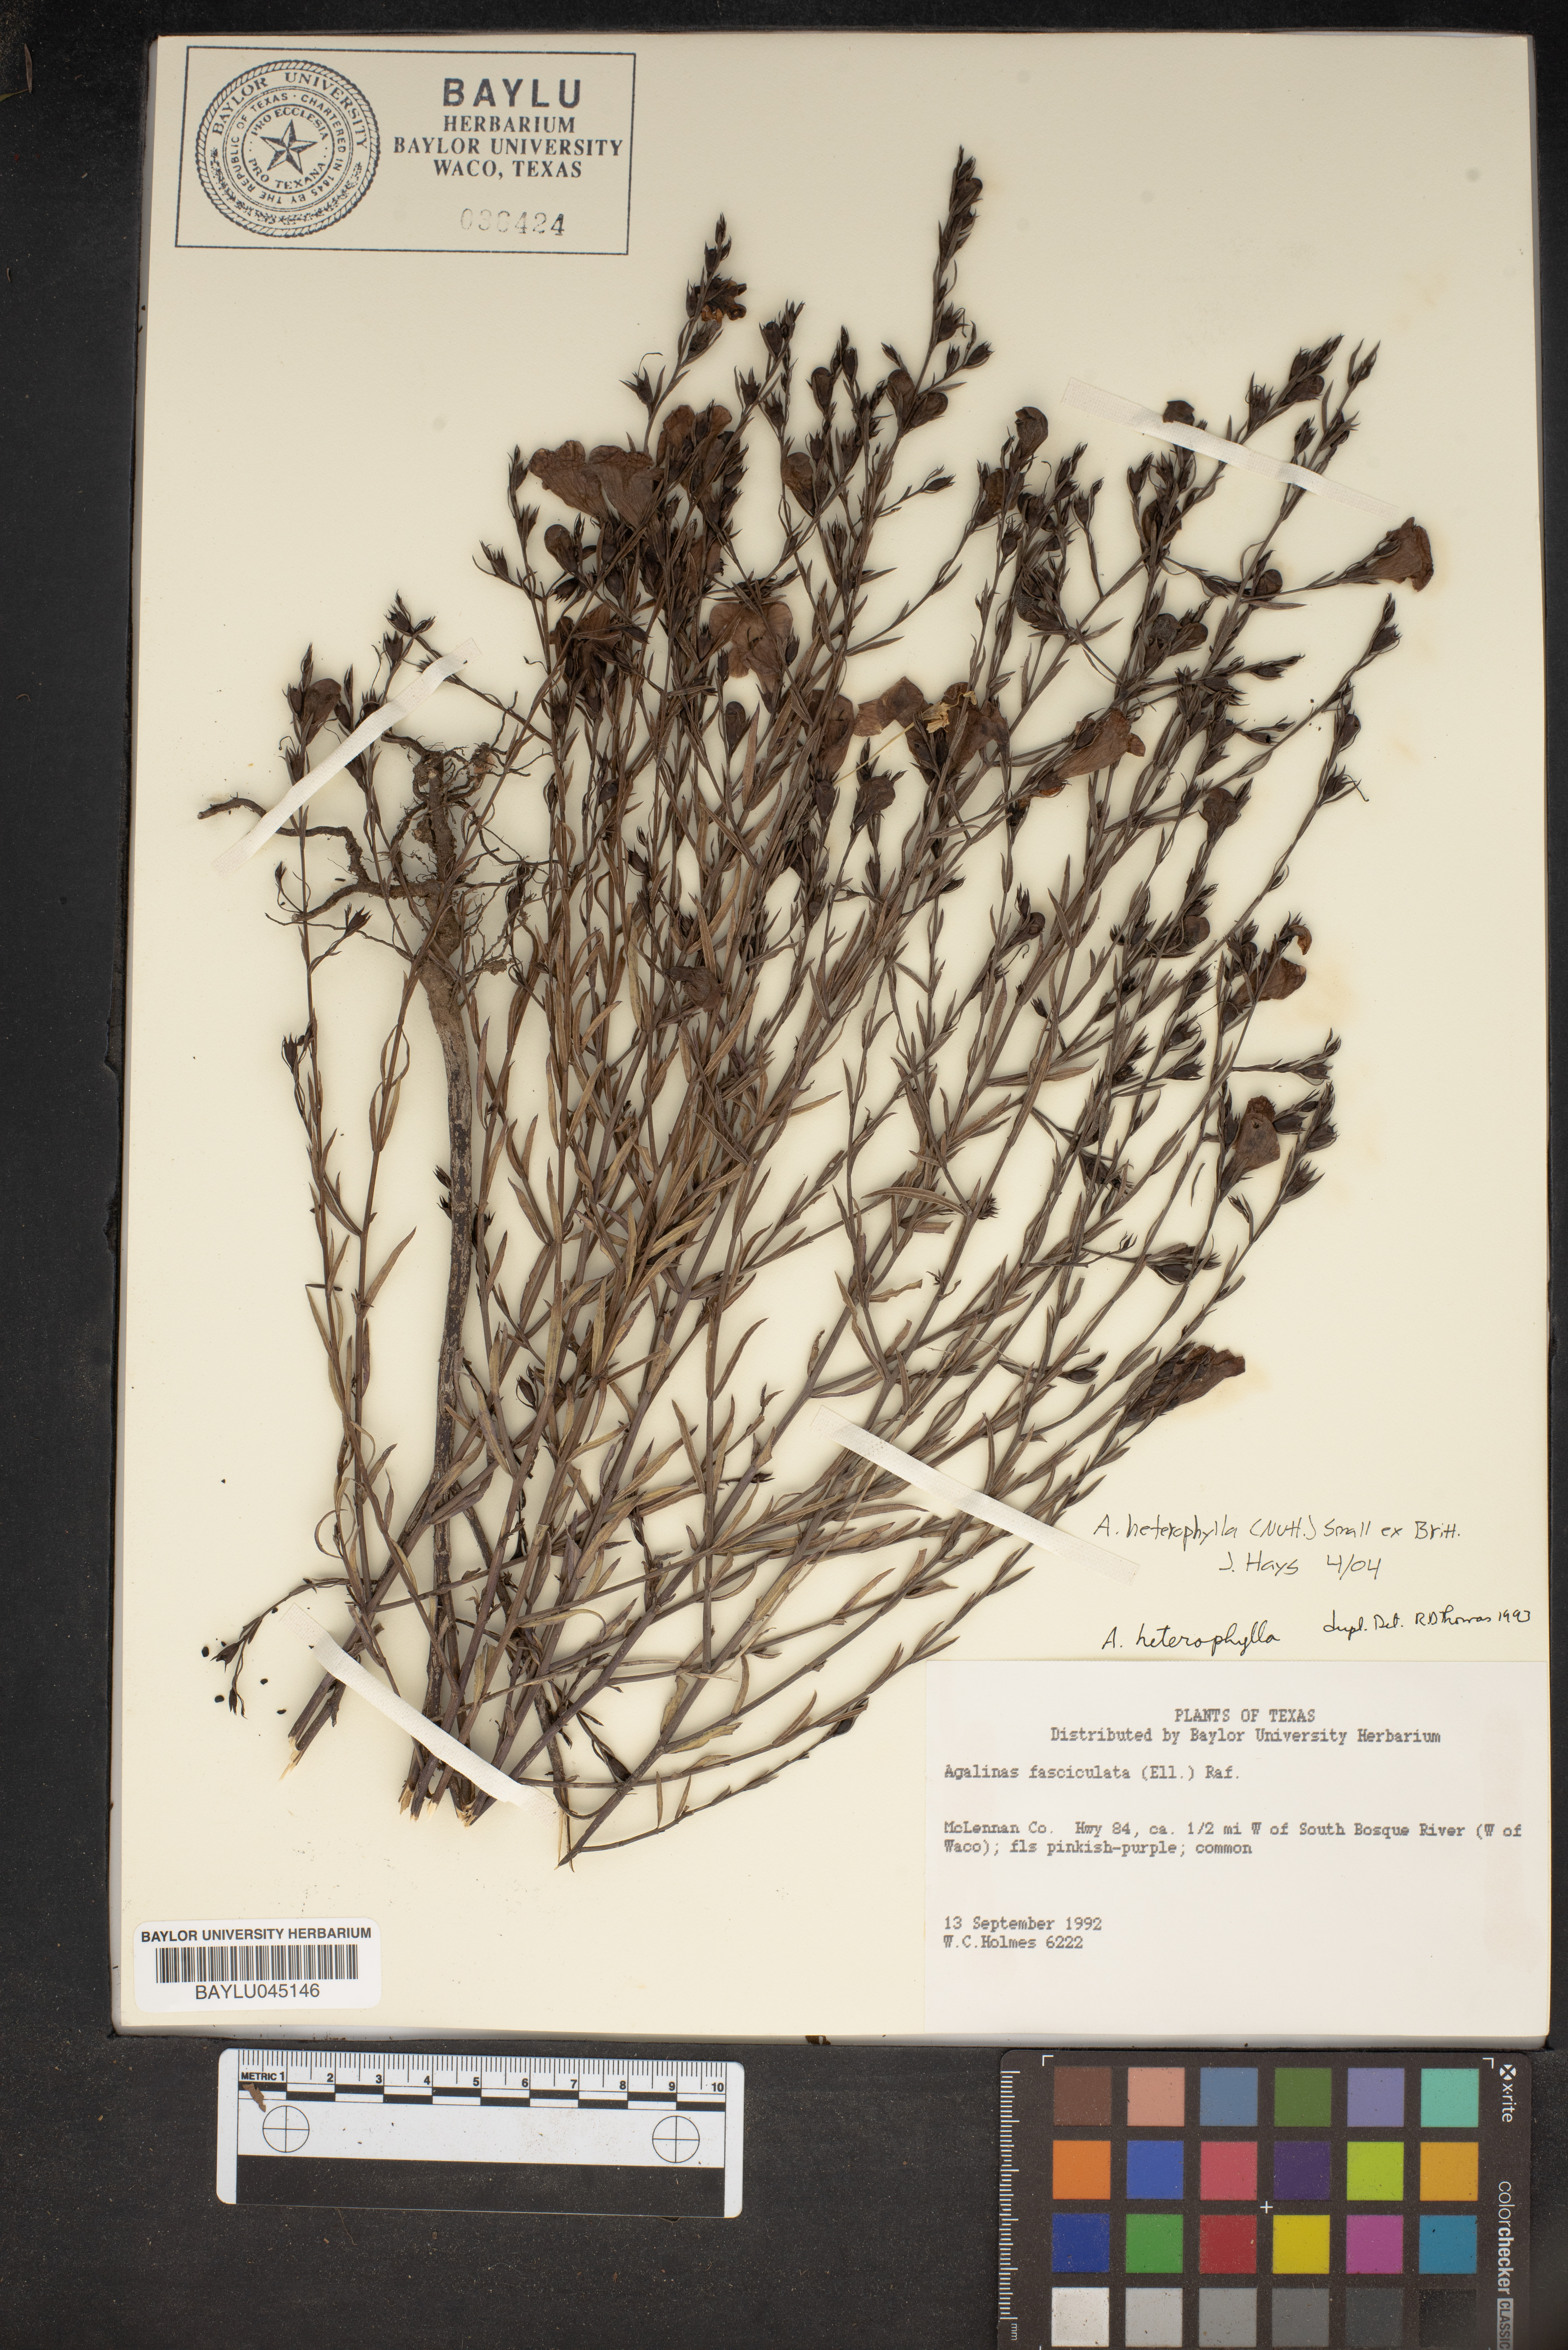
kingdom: Plantae
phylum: Tracheophyta
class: Magnoliopsida
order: Lamiales
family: Orobanchaceae
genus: Agalinis
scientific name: Agalinis heterophylla
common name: Prairie agalinis
